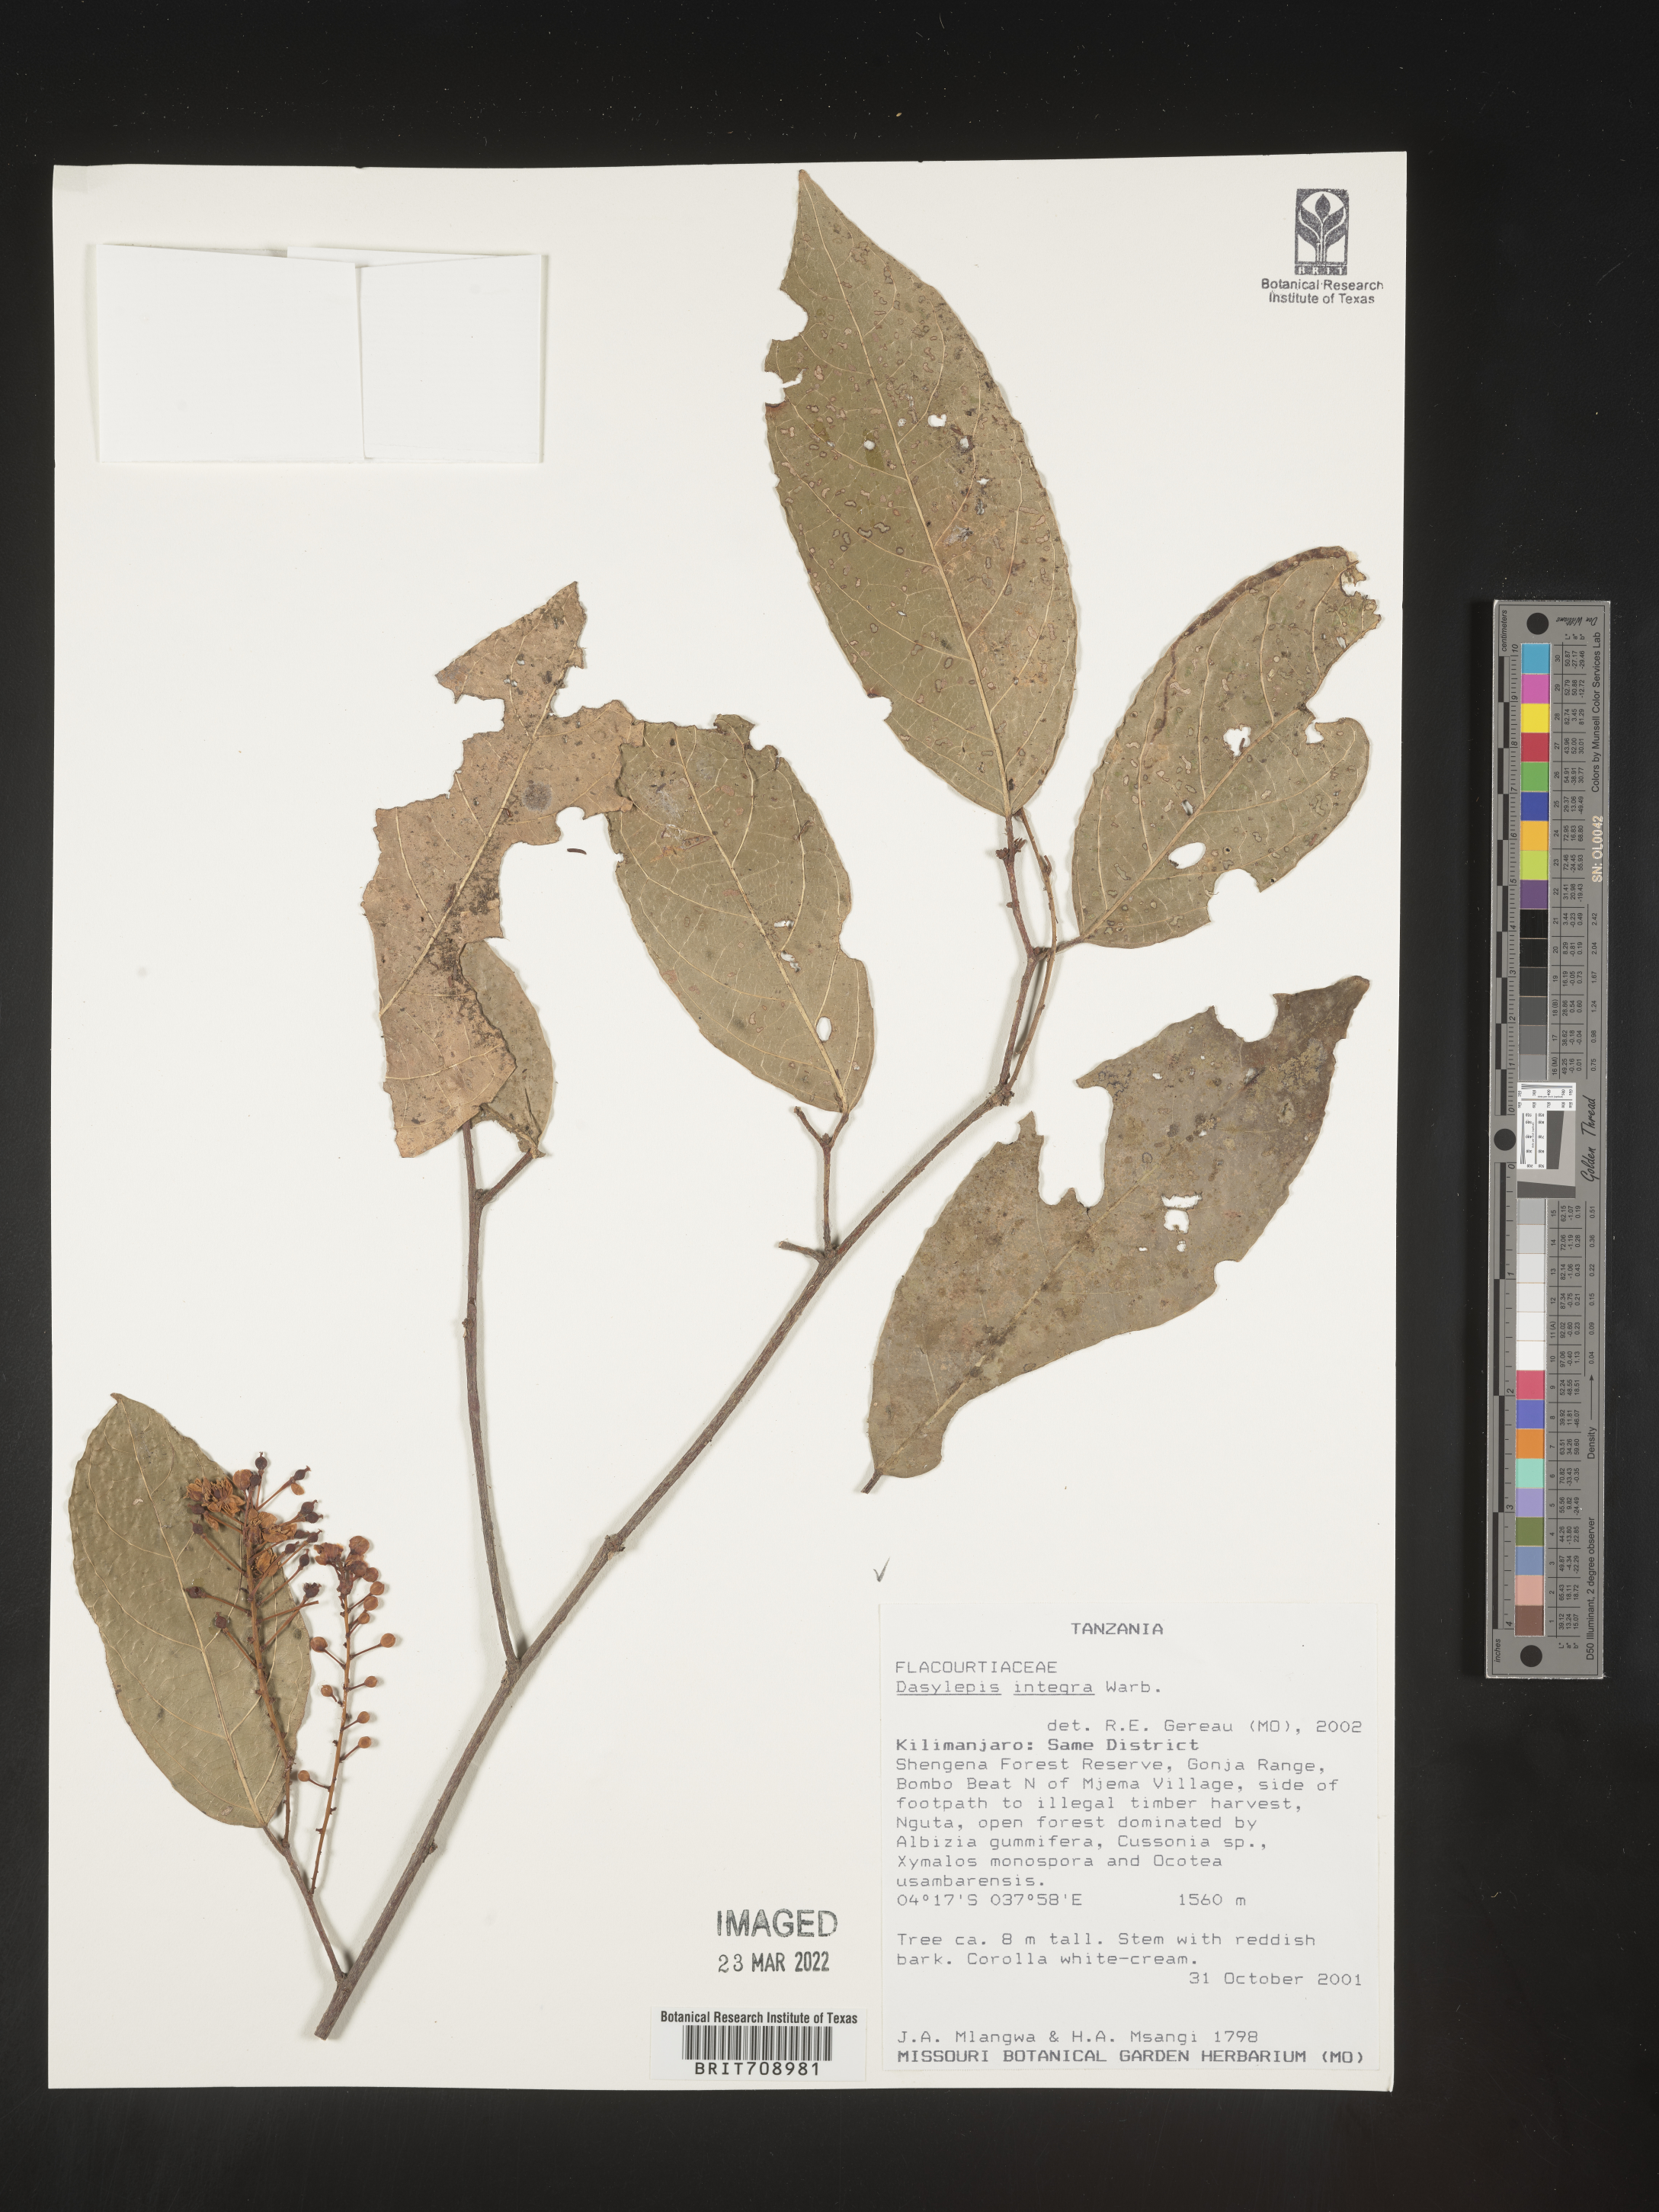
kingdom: Plantae
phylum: Tracheophyta
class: Magnoliopsida
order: Malpighiales
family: Achariaceae
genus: Dasylepis
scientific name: Dasylepis
